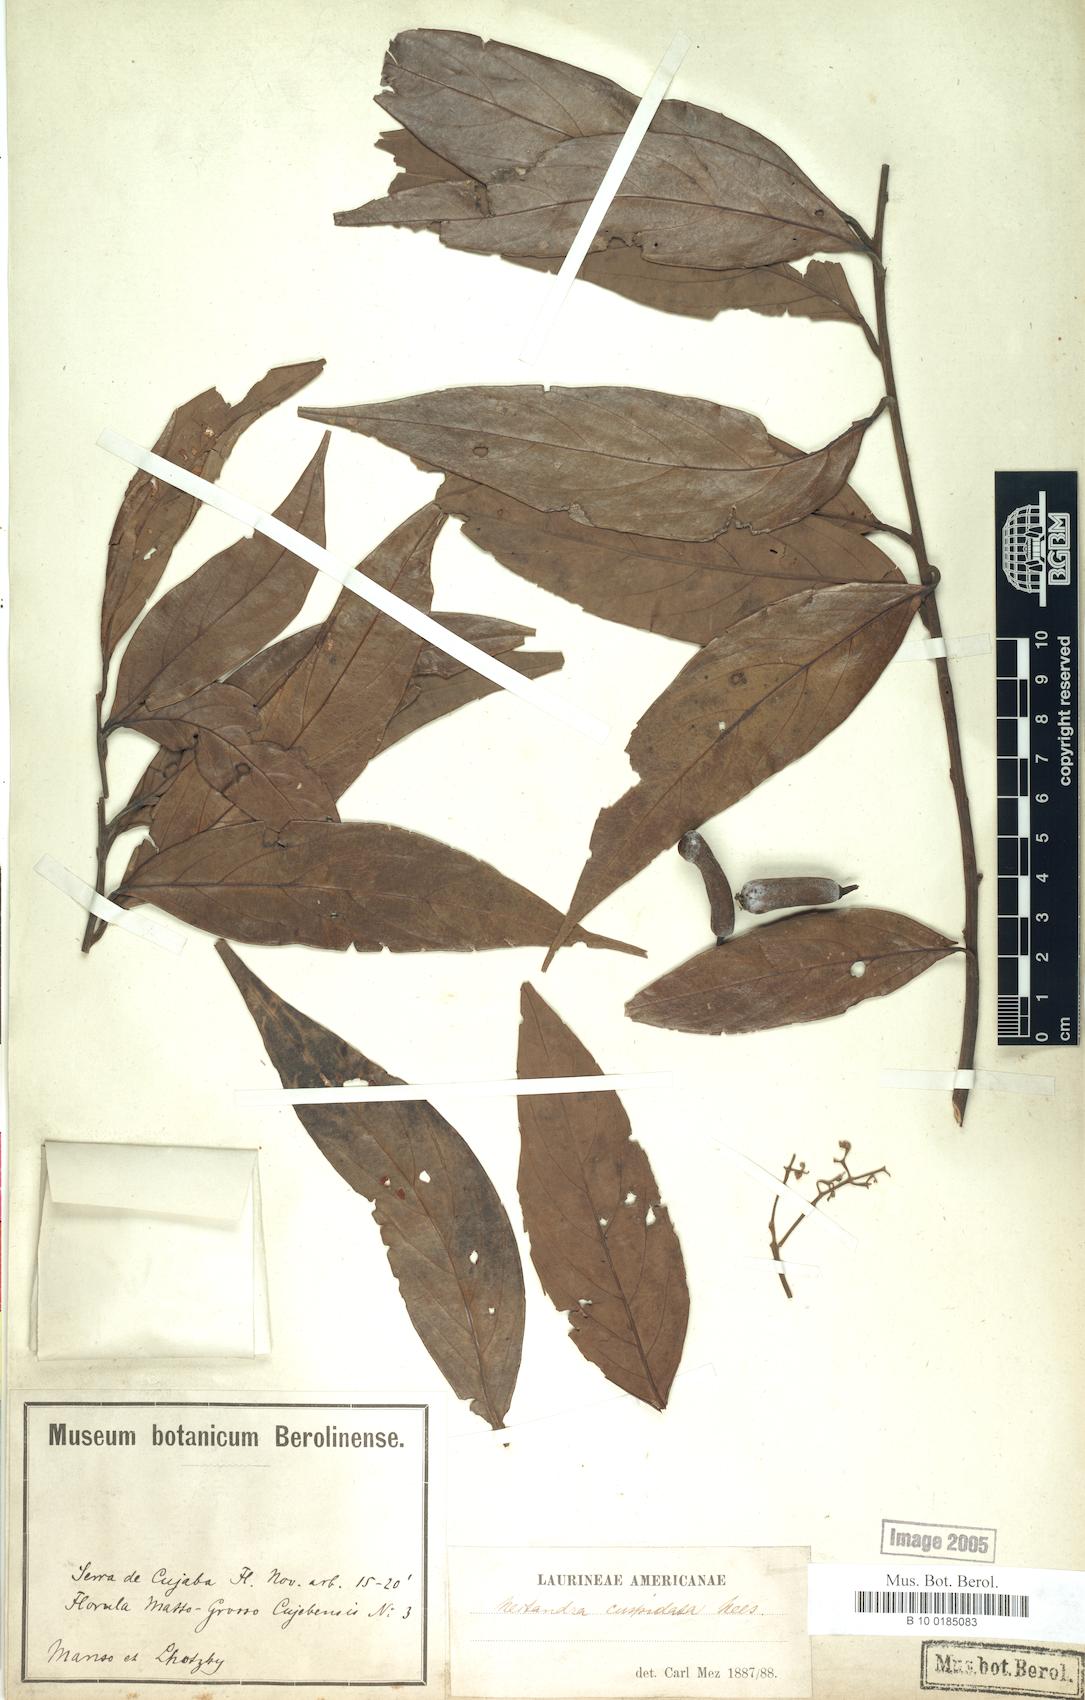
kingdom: Plantae
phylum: Tracheophyta
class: Magnoliopsida
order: Laurales
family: Lauraceae
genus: Nectandra
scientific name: Nectandra cuspidata
